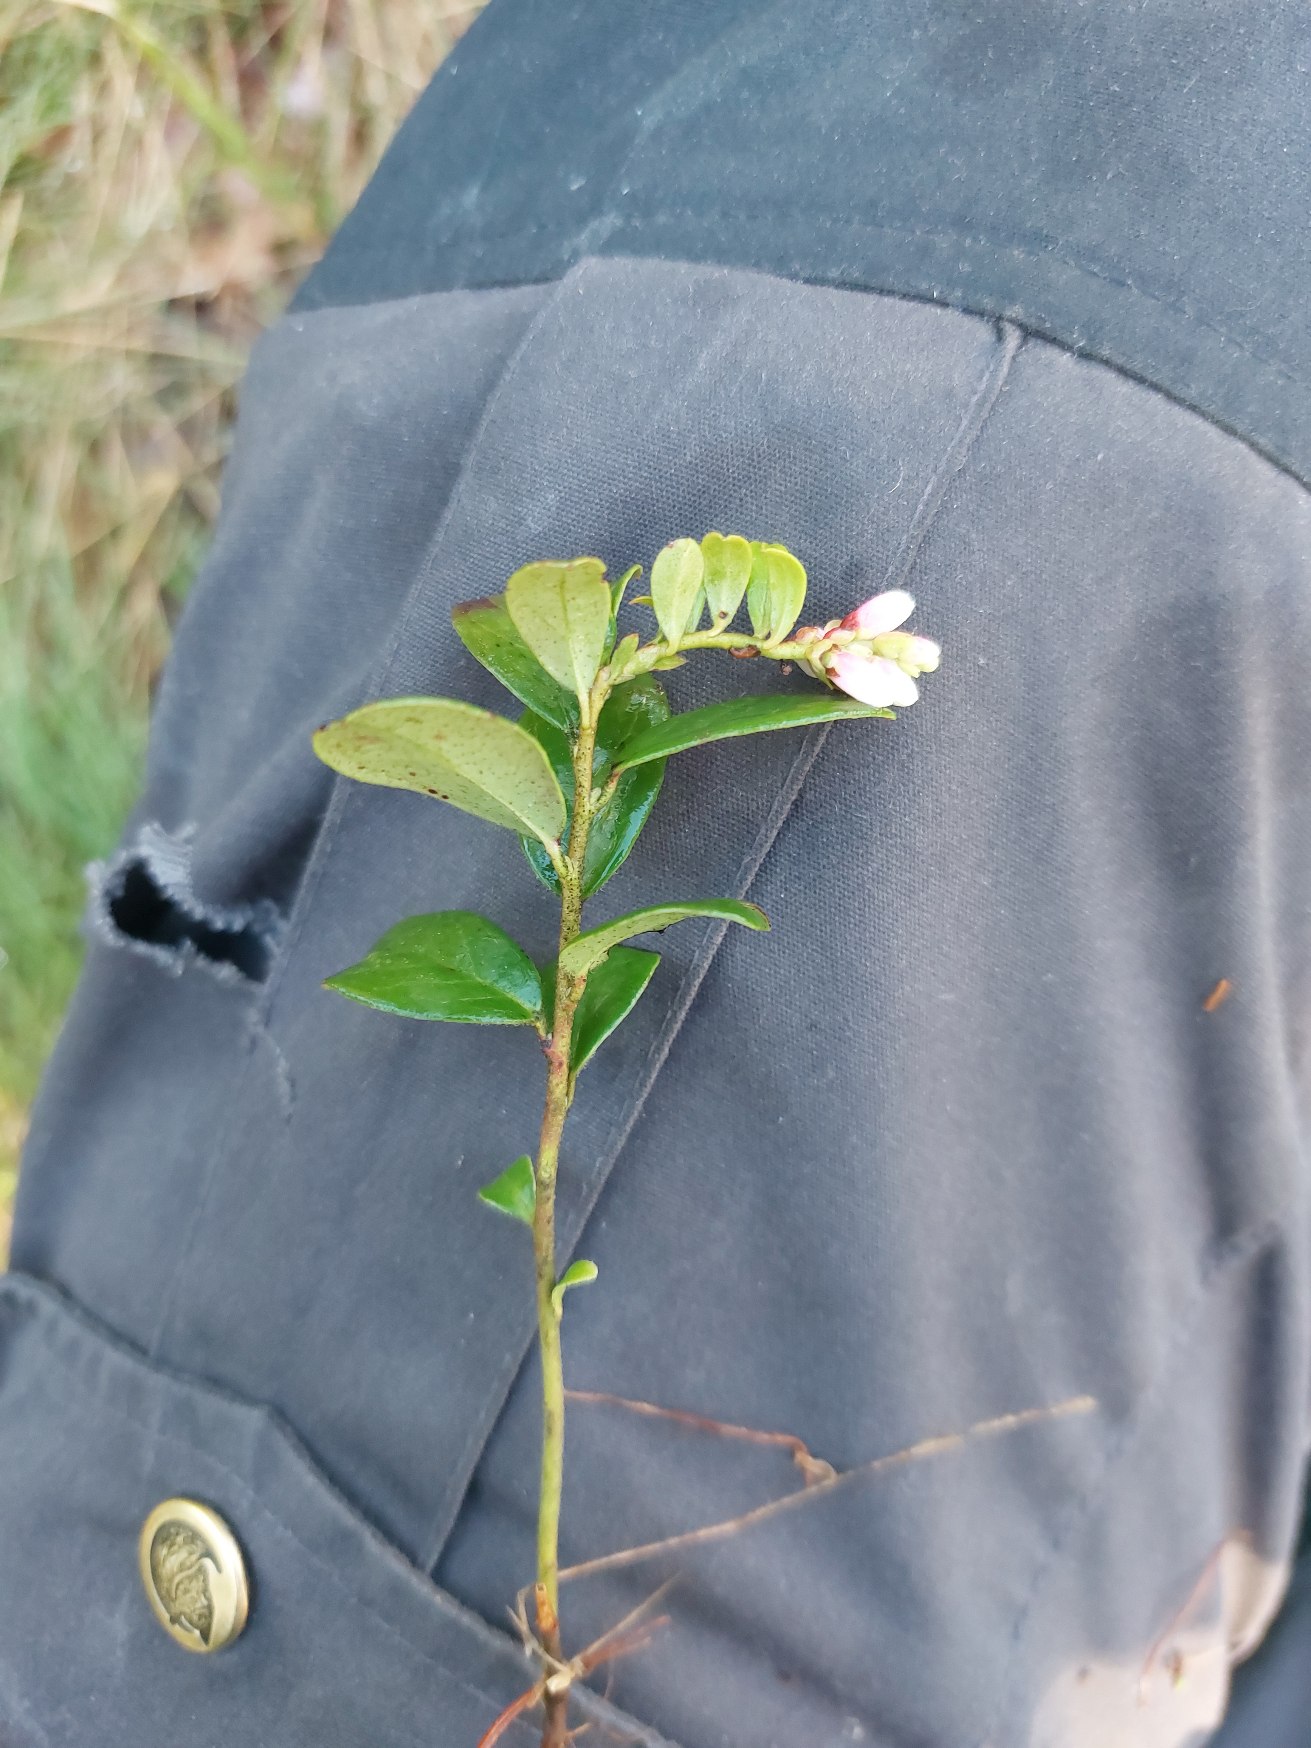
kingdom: Plantae
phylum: Tracheophyta
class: Magnoliopsida
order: Ericales
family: Ericaceae
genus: Vaccinium
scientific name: Vaccinium vitis-idaea
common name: Tyttebær
